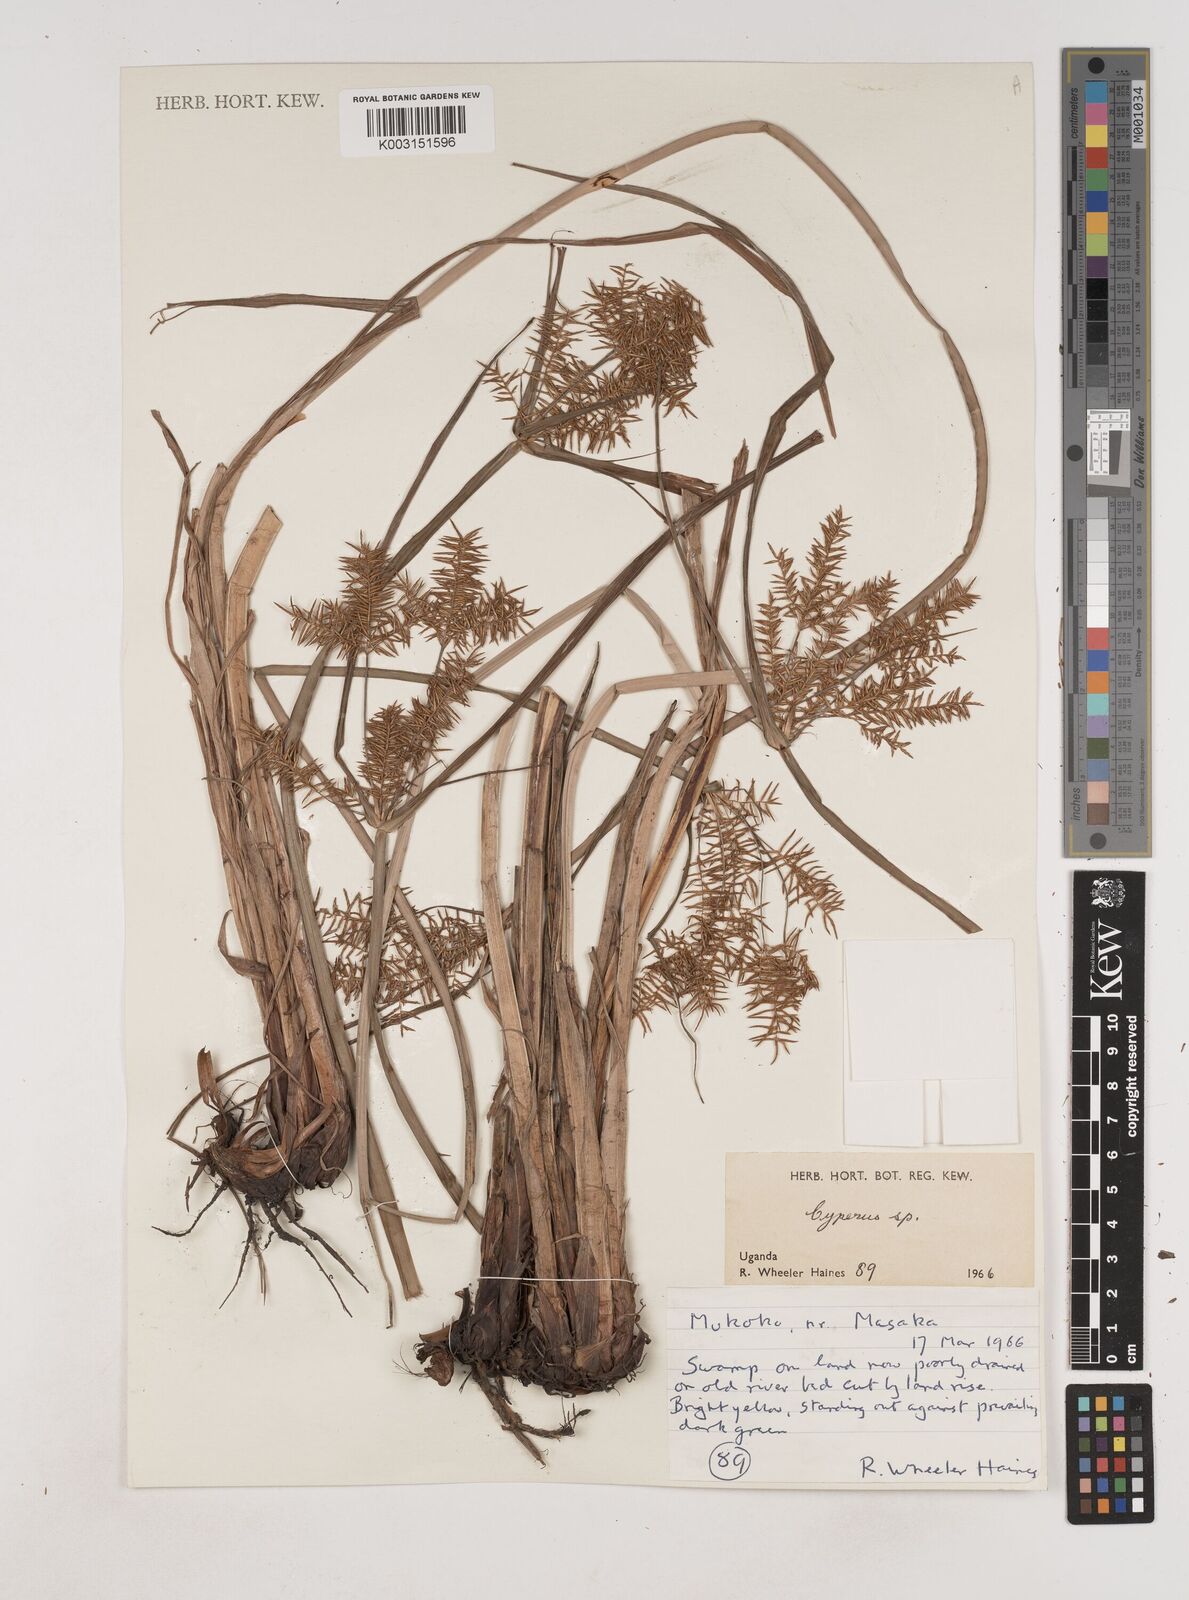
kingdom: Plantae
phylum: Tracheophyta
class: Liliopsida
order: Poales
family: Cyperaceae
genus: Cyperus
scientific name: Cyperus digitatus
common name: Finger flatsedge
